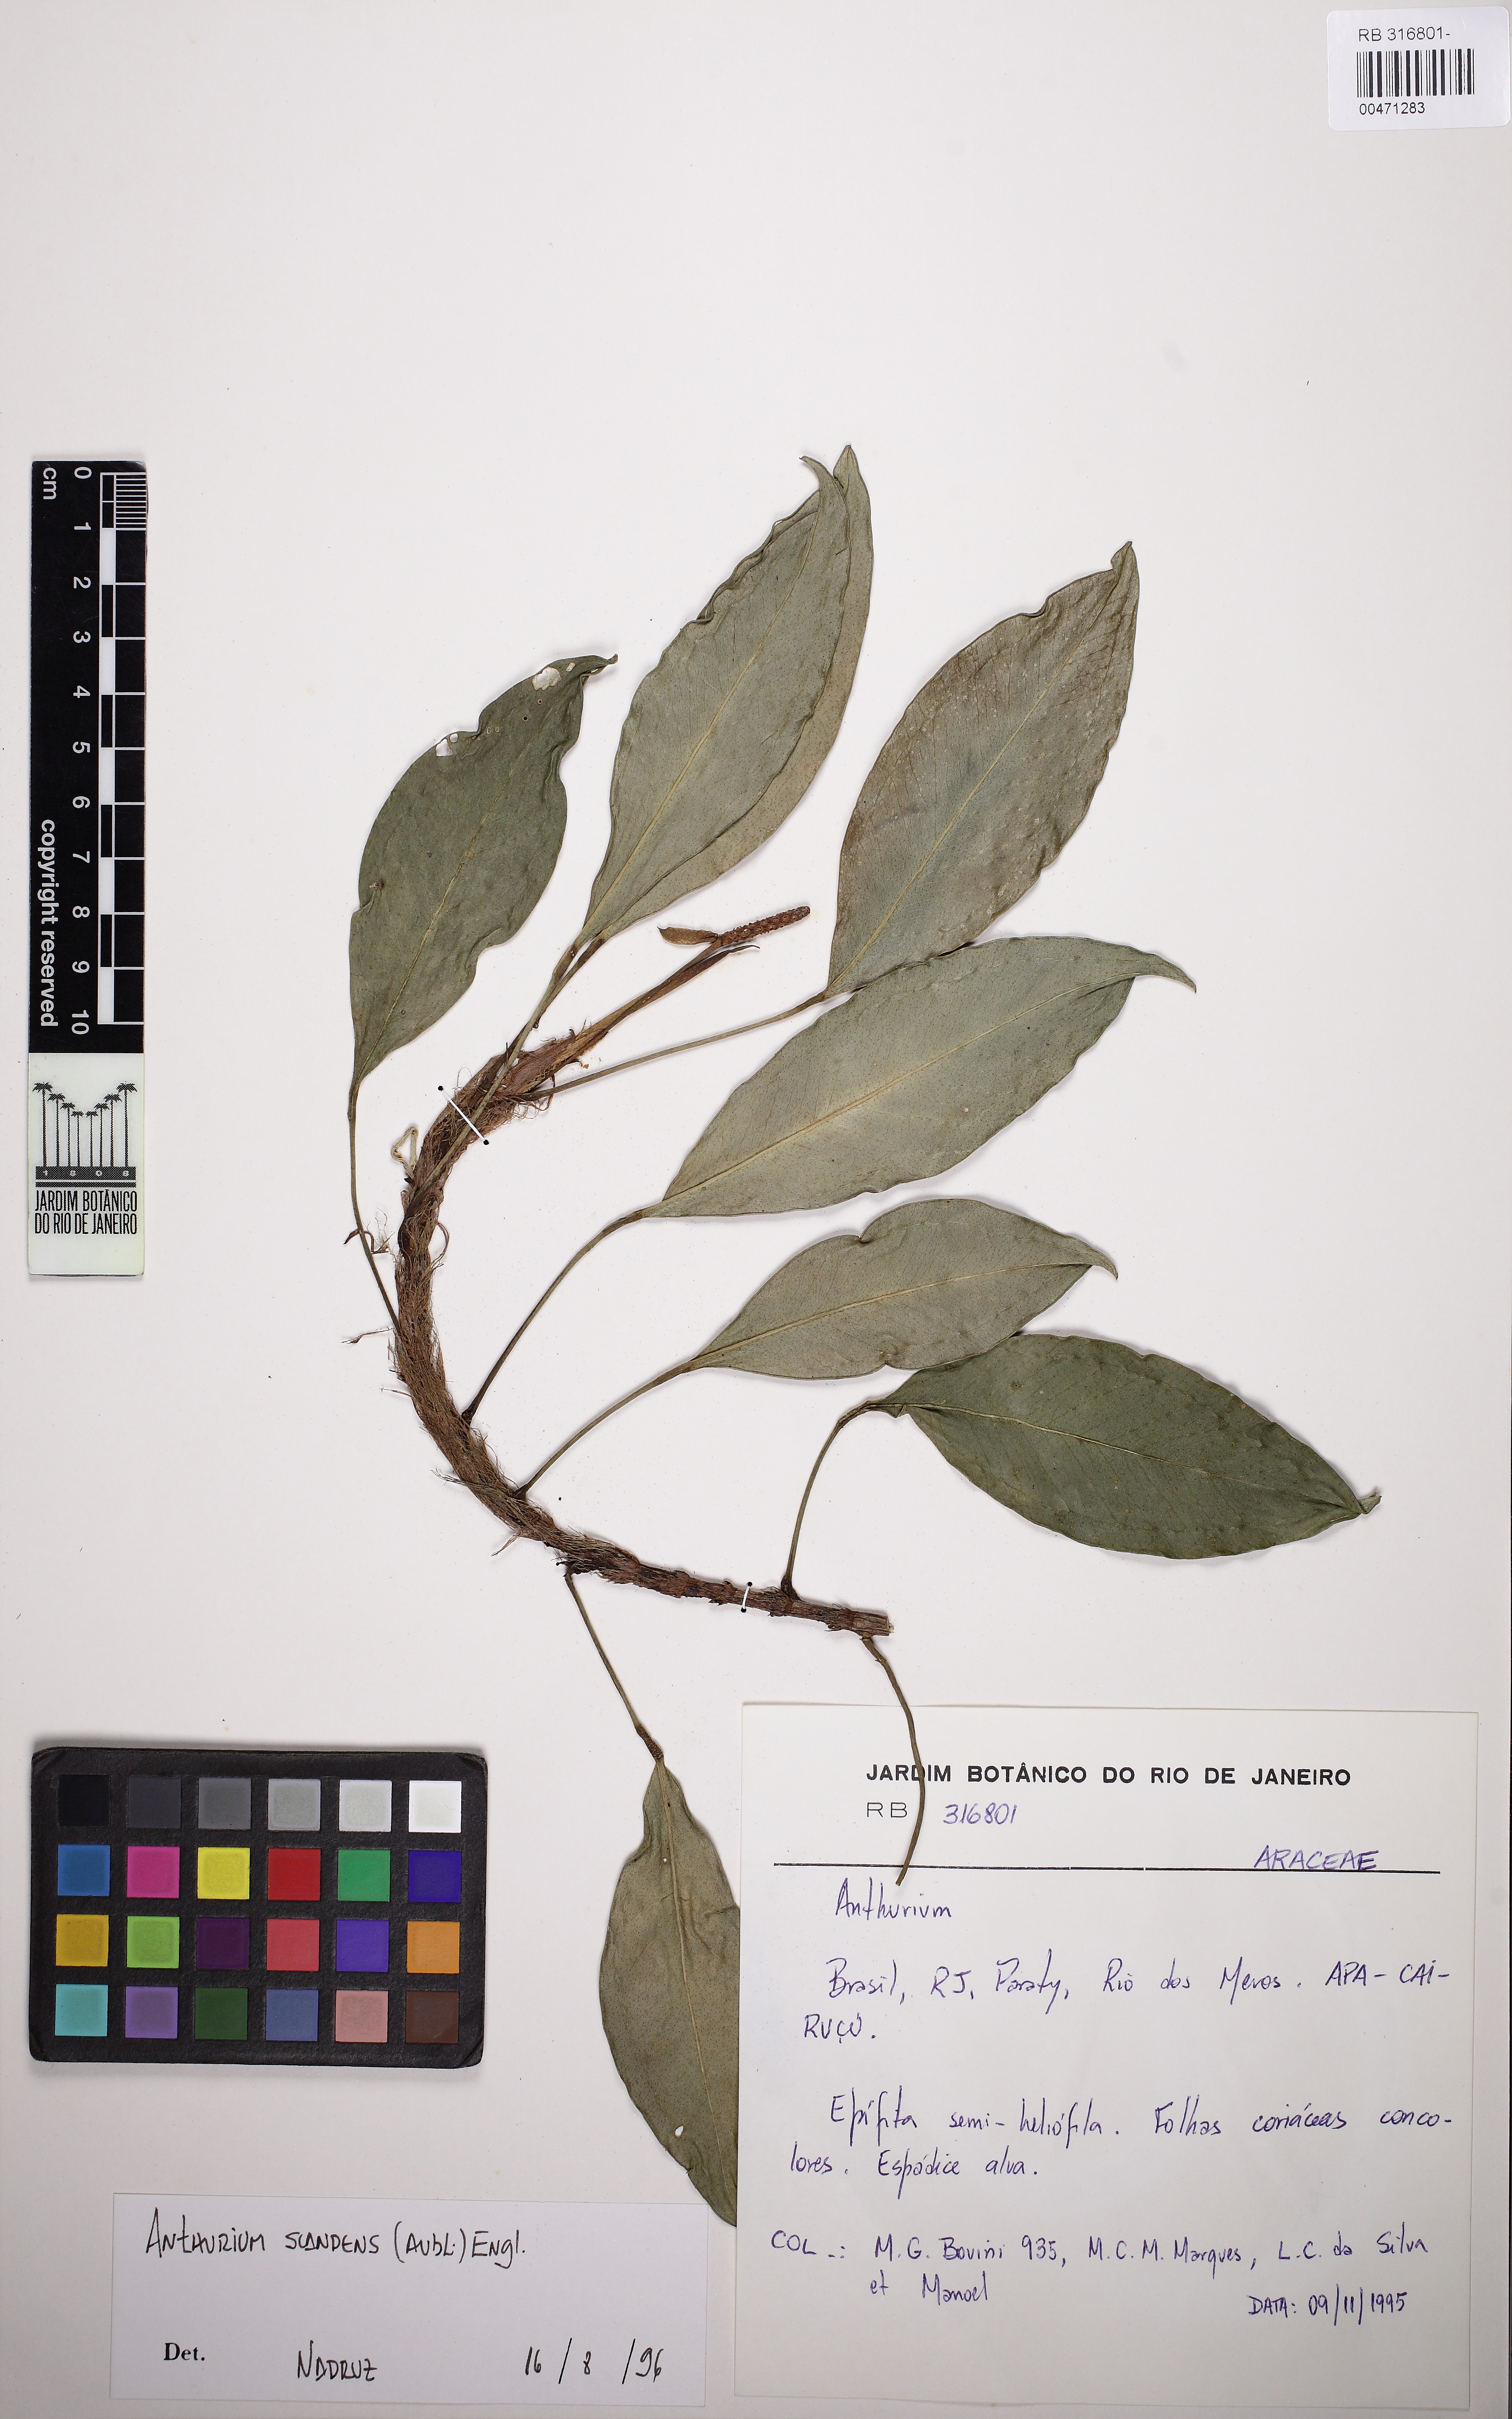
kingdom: Plantae
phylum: Tracheophyta
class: Liliopsida
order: Alismatales
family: Araceae
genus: Anthurium
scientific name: Anthurium scandens
